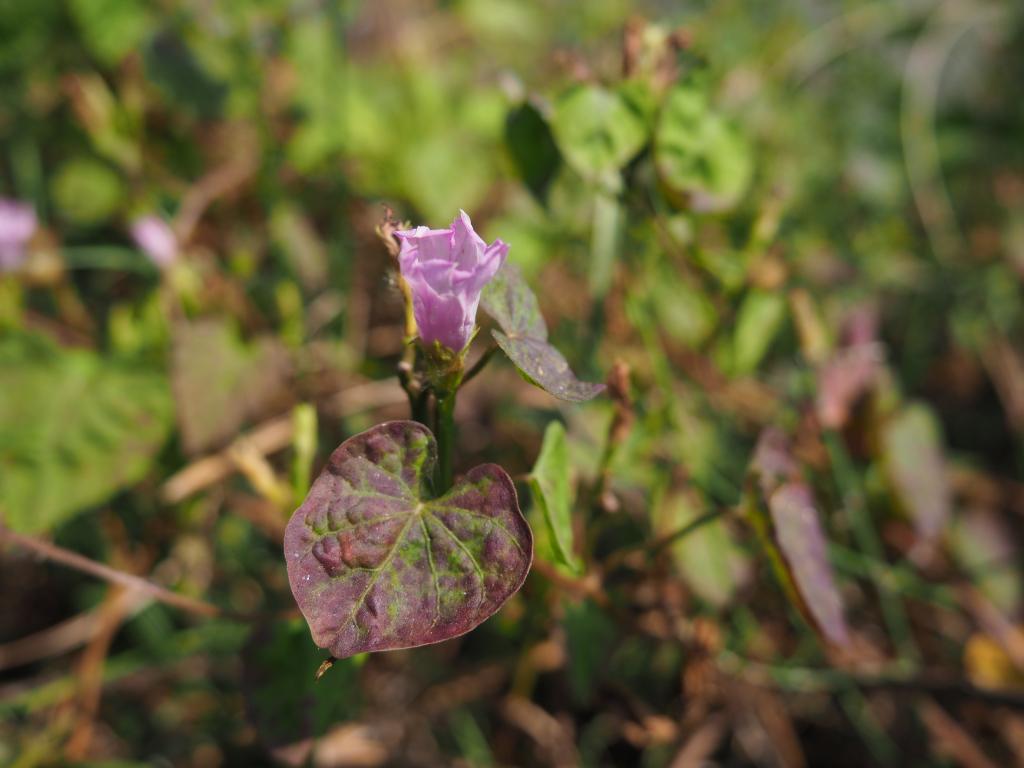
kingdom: Plantae
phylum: Tracheophyta
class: Magnoliopsida
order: Solanales
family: Convolvulaceae
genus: Ipomoea
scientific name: Ipomoea triloba
